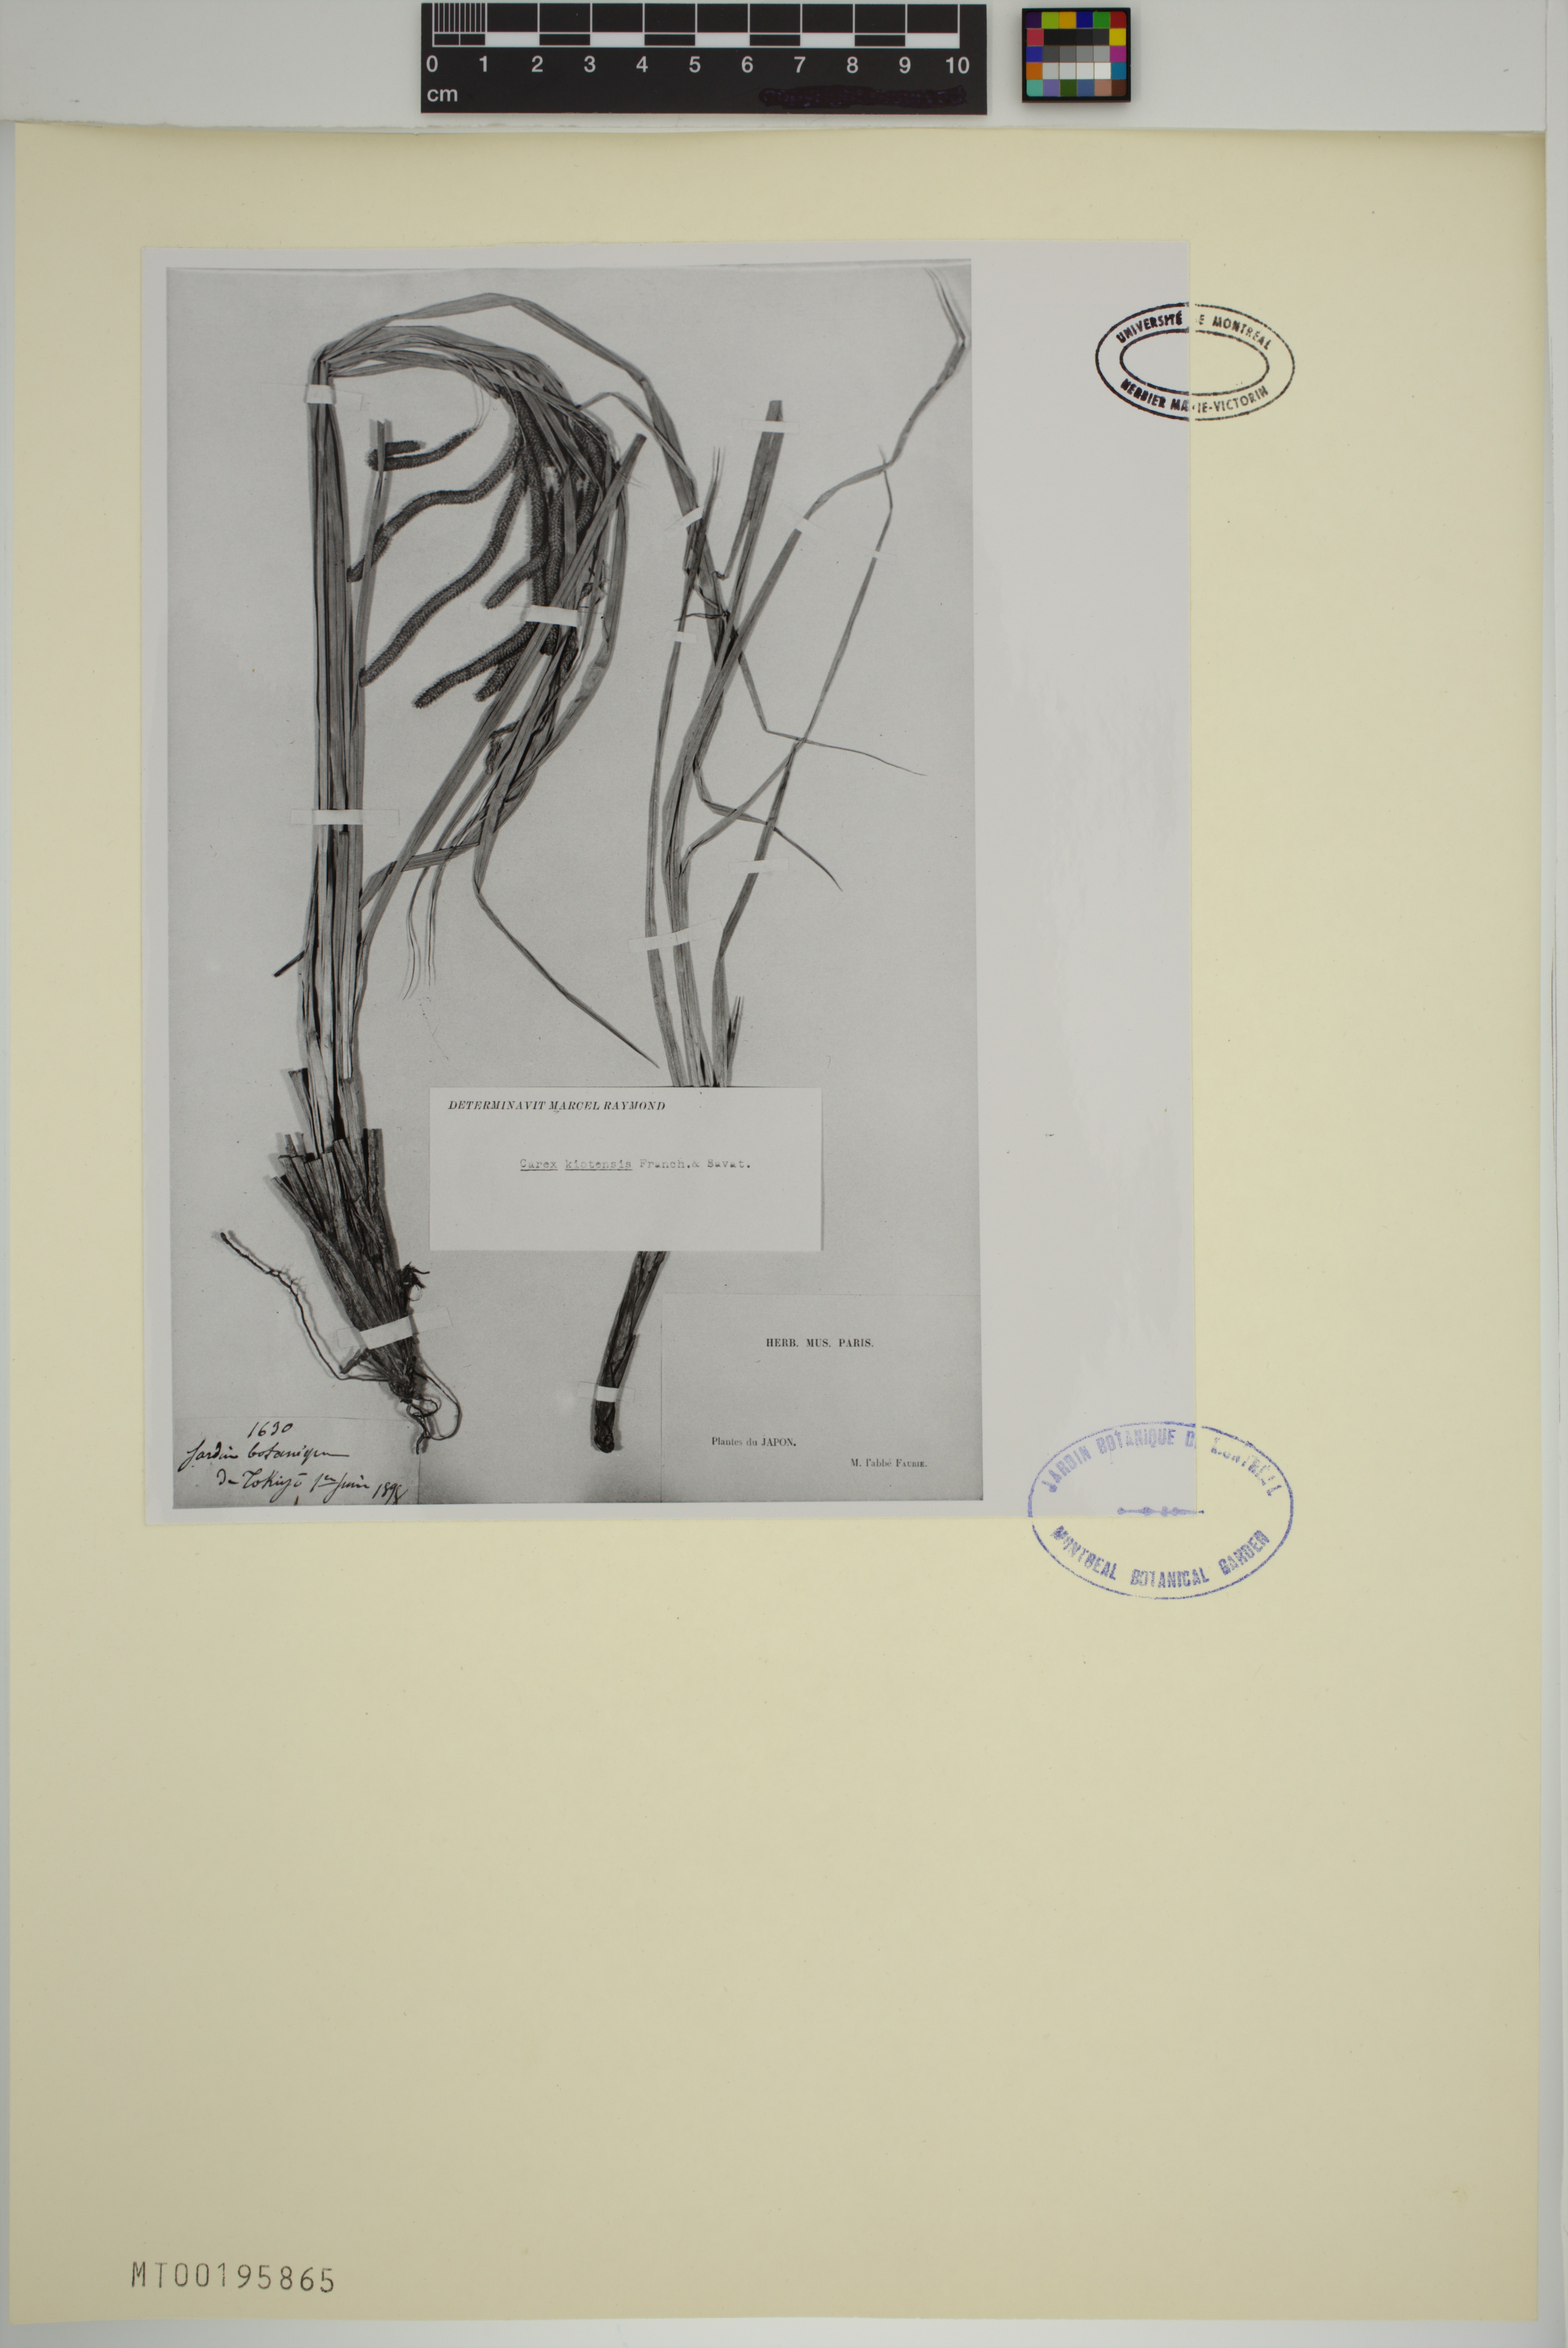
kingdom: Plantae
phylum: Tracheophyta
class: Liliopsida
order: Poales
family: Cyperaceae
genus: Carex
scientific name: Carex kiotensis
